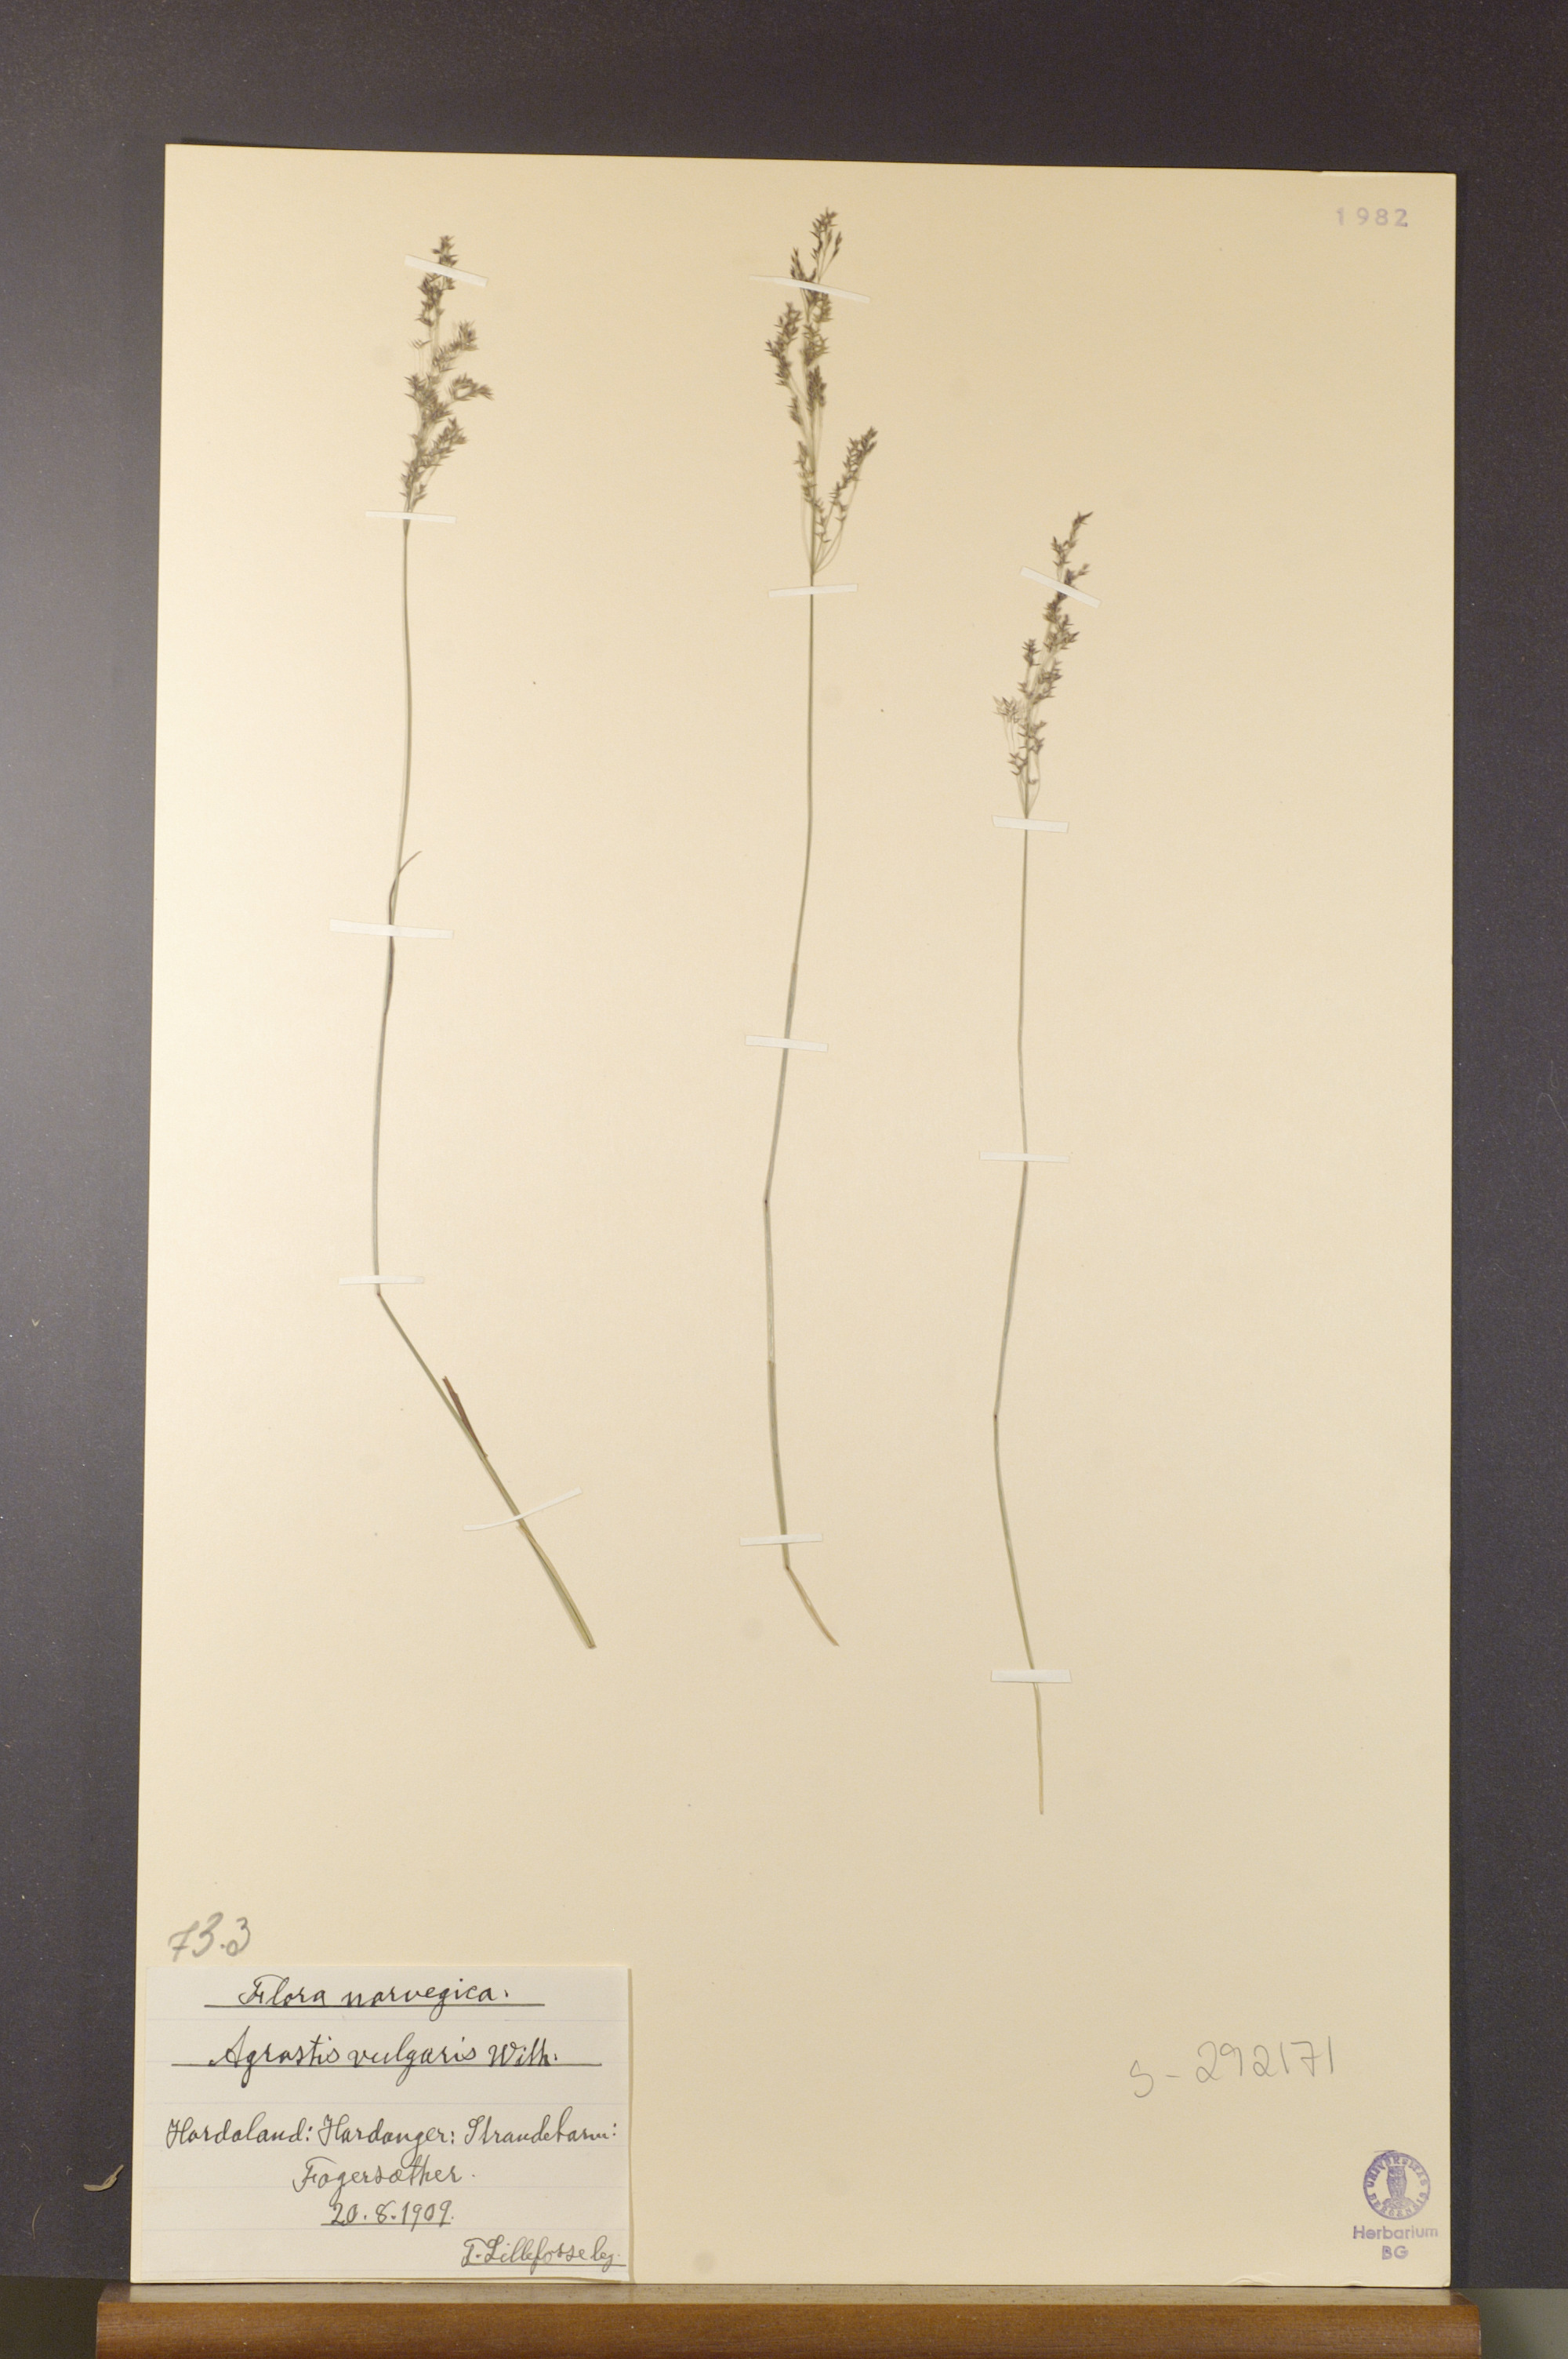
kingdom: Plantae
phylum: Tracheophyta
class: Liliopsida
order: Poales
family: Poaceae
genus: Agrostis
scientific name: Agrostis capillaris
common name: Colonial bentgrass
